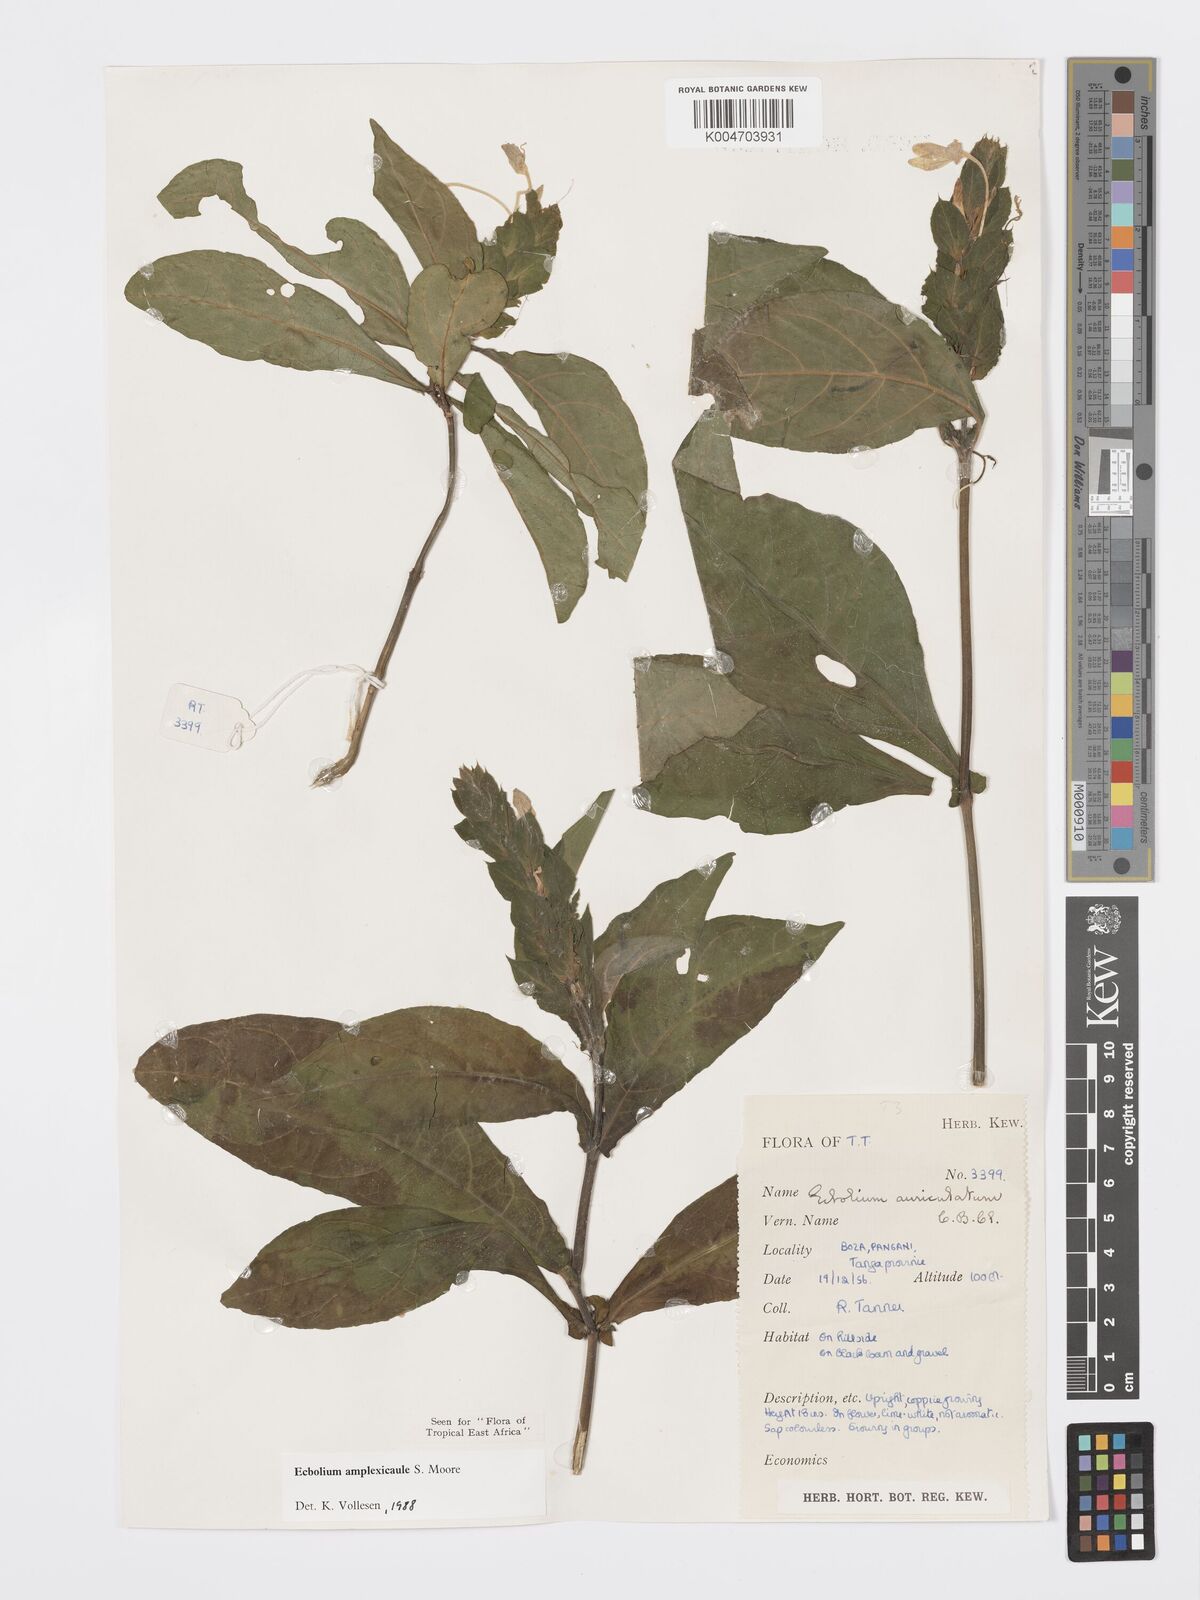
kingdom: Plantae
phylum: Tracheophyta
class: Magnoliopsida
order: Lamiales
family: Acanthaceae
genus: Ecbolium
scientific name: Ecbolium amplexicaule
